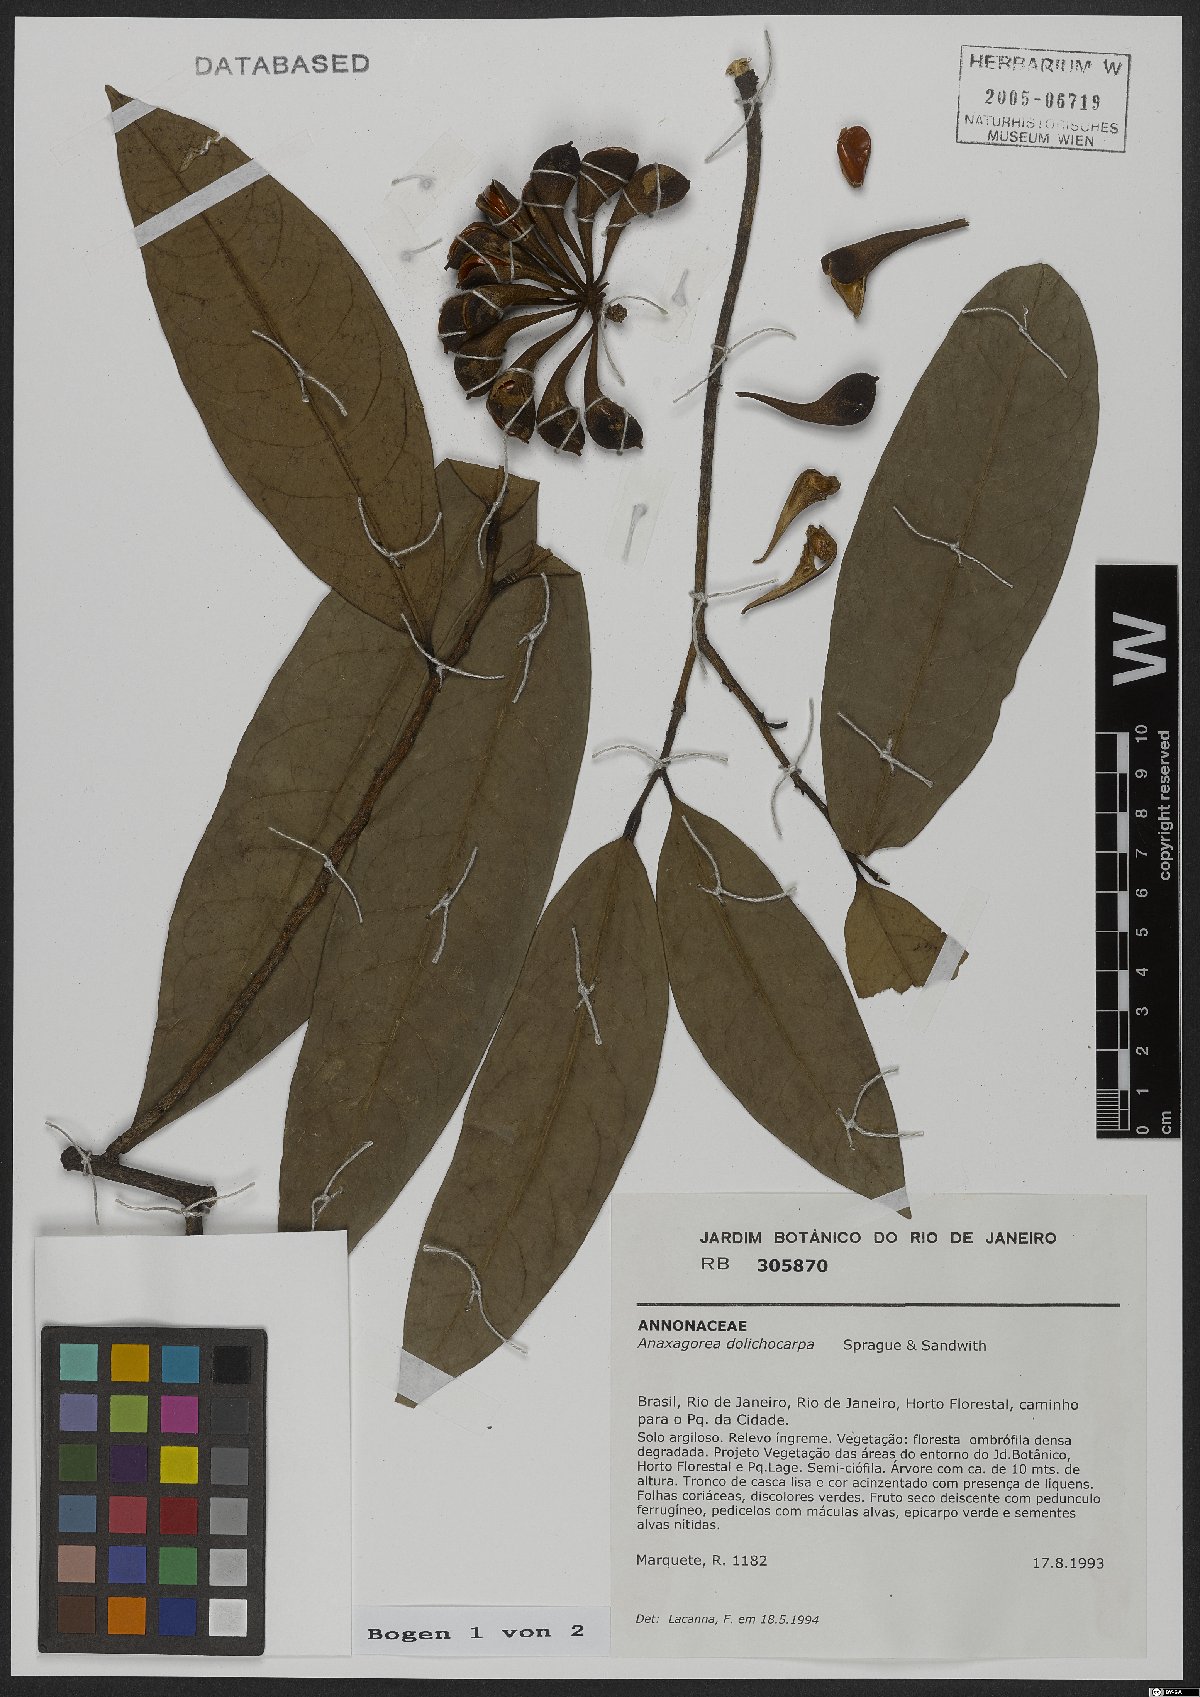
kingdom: Plantae
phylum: Tracheophyta
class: Magnoliopsida
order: Magnoliales
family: Annonaceae
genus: Anaxagorea
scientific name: Anaxagorea dolichocarpa
